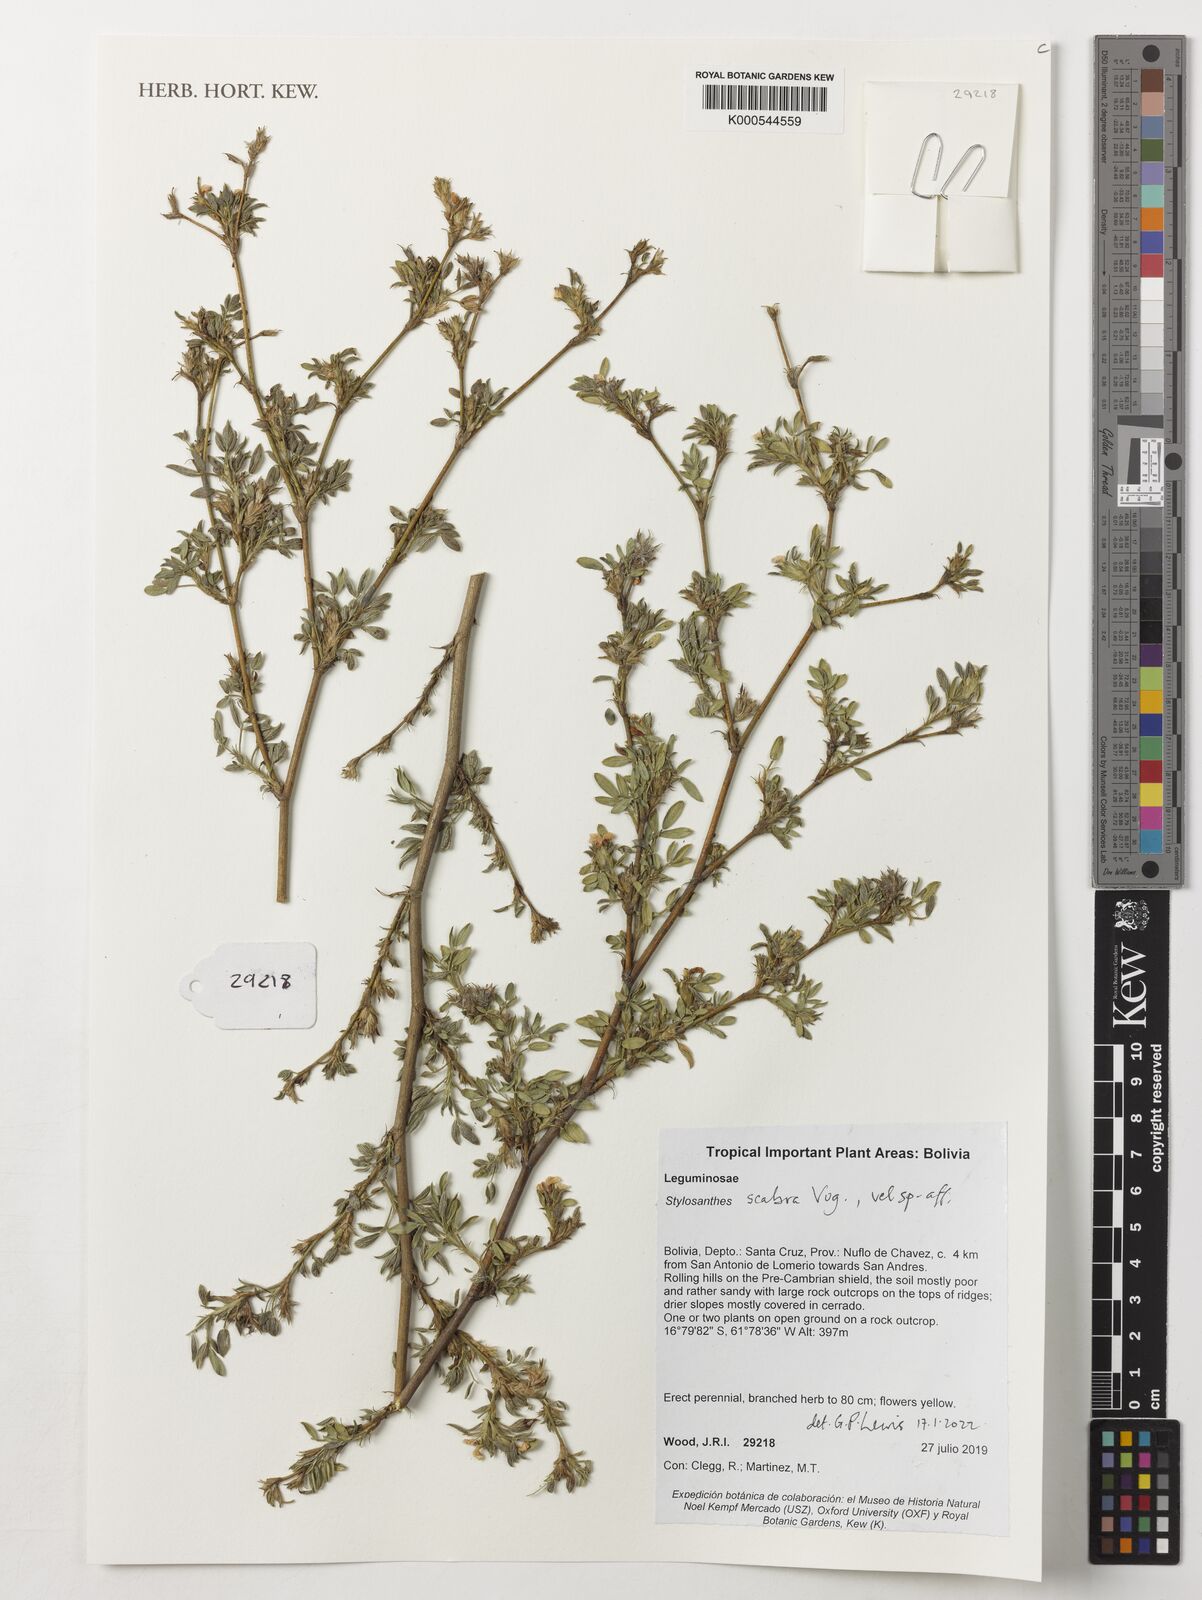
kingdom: Plantae
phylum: Tracheophyta
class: Magnoliopsida
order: Fabales
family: Fabaceae
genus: Stylosanthes
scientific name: Stylosanthes scabra
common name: Pencilflower
